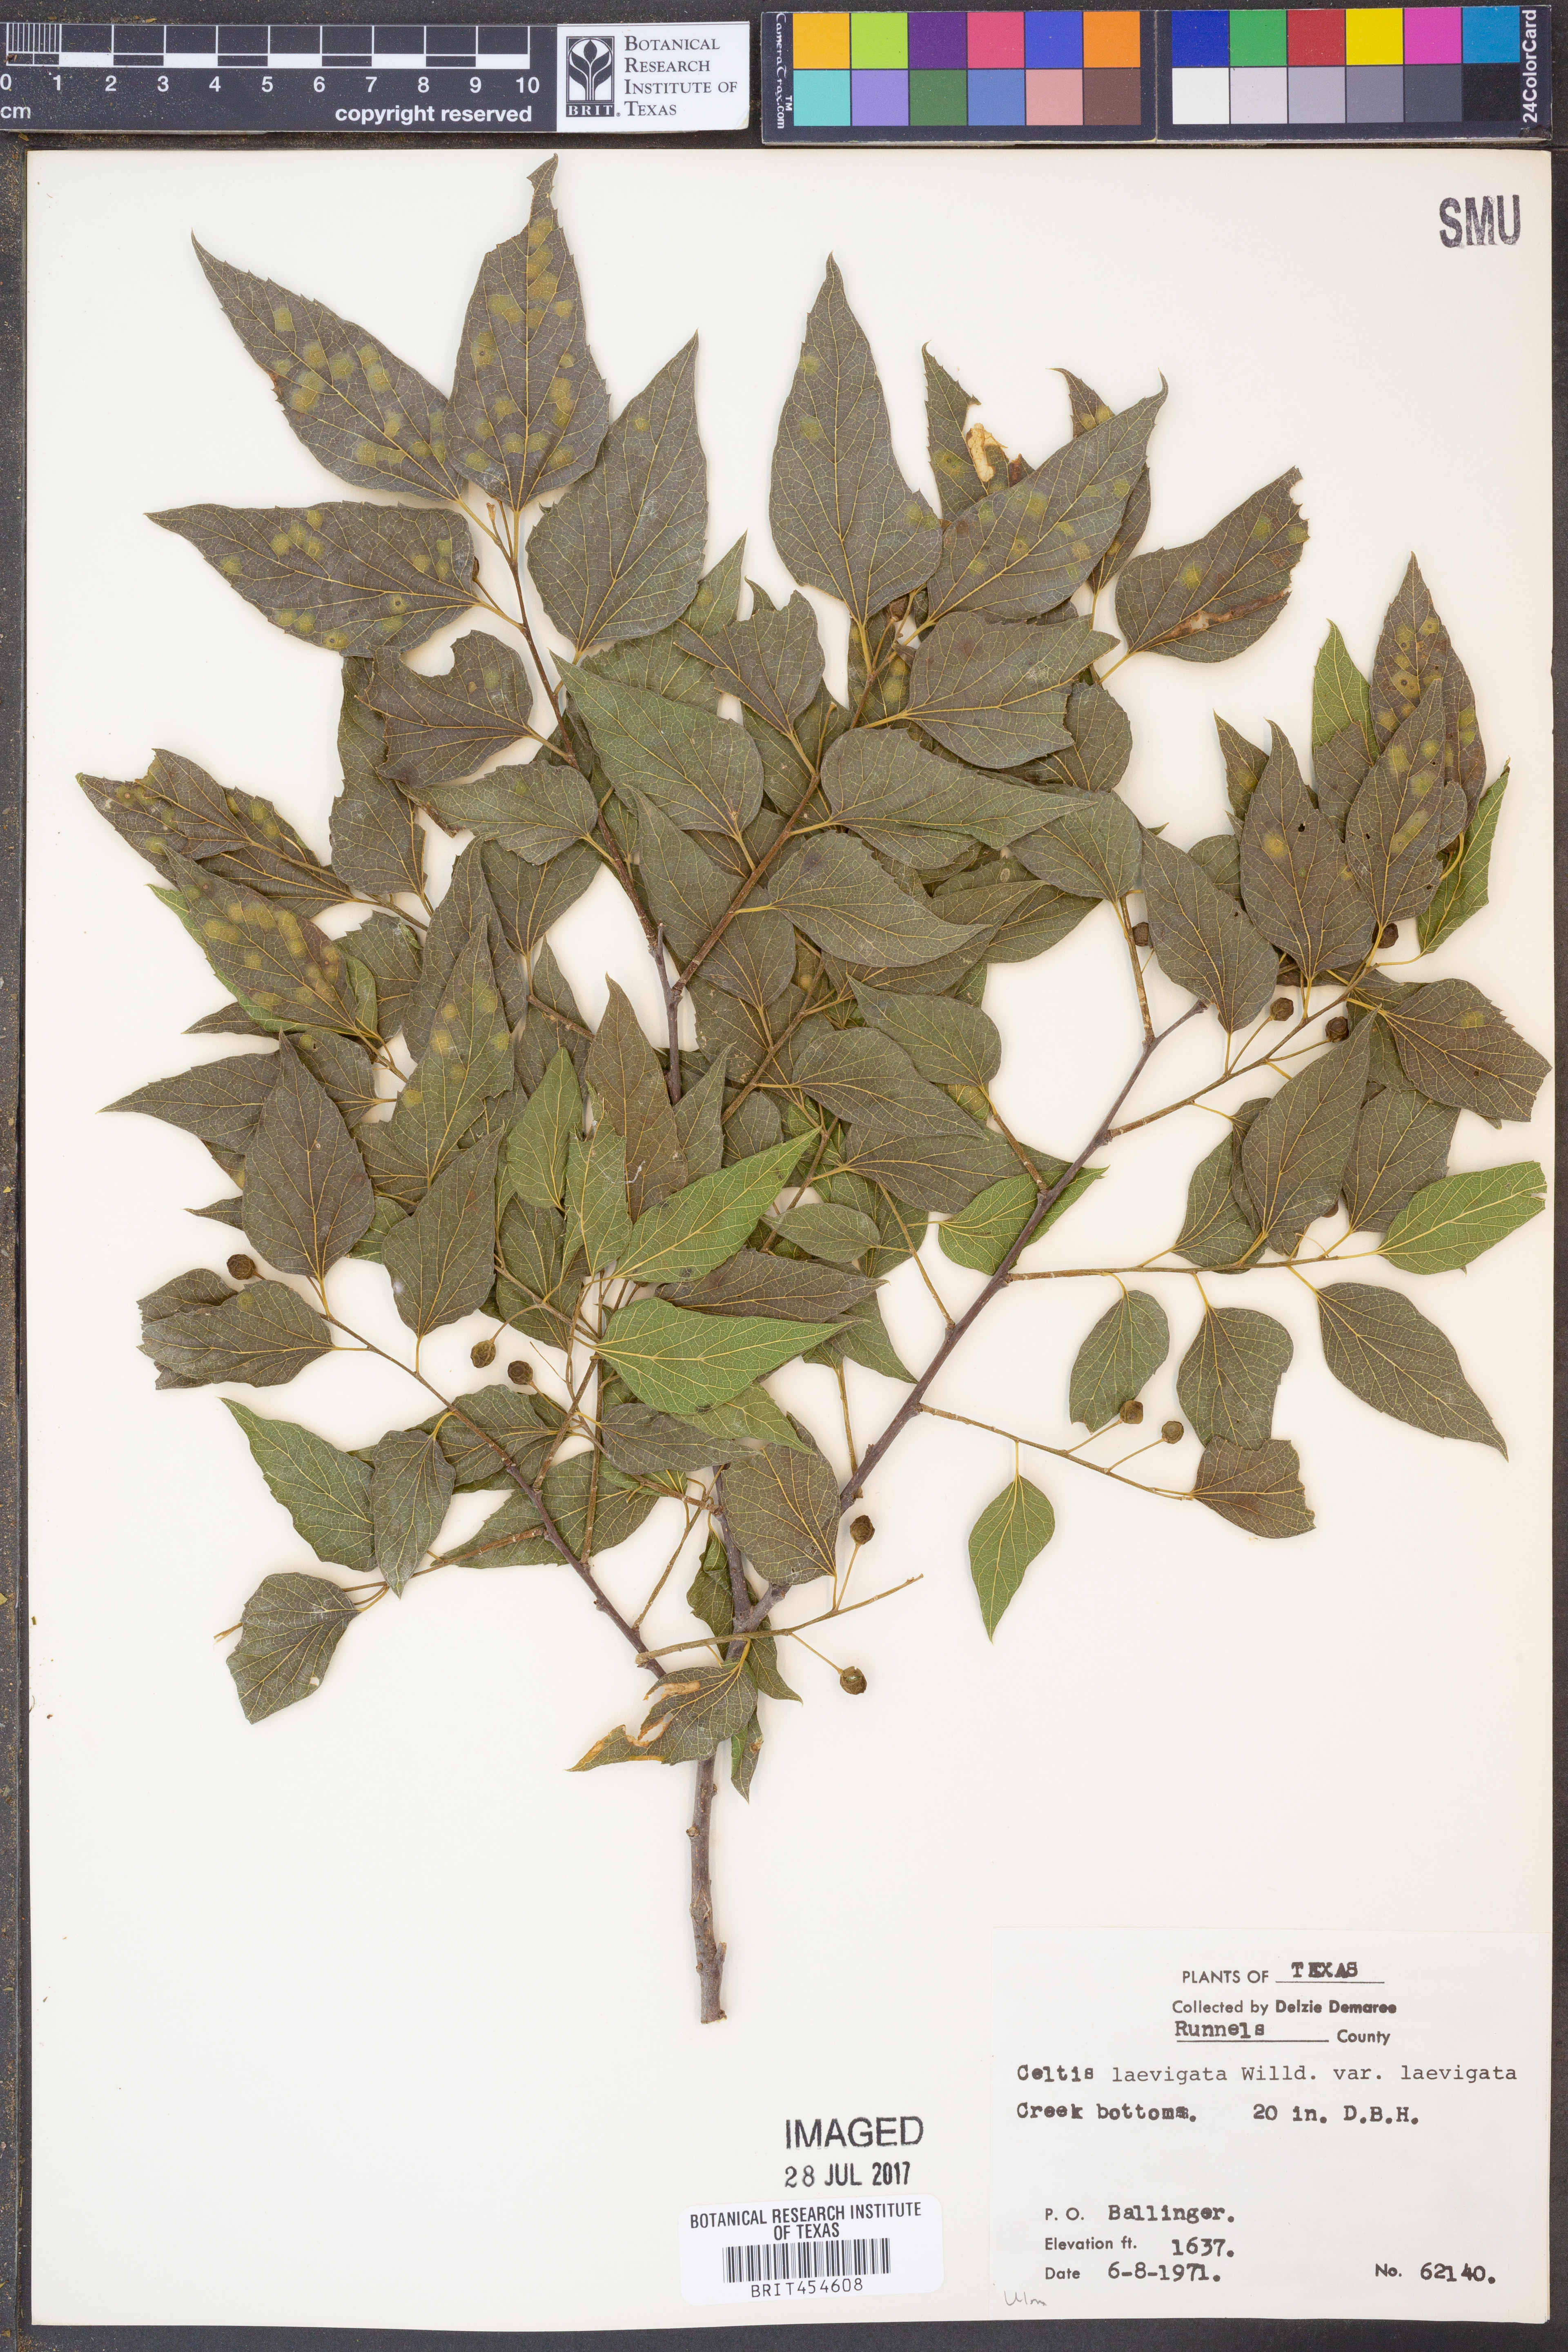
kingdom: Plantae
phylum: Tracheophyta
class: Magnoliopsida
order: Rosales
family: Cannabaceae
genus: Celtis
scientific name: Celtis laevigata
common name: Sugarberry
